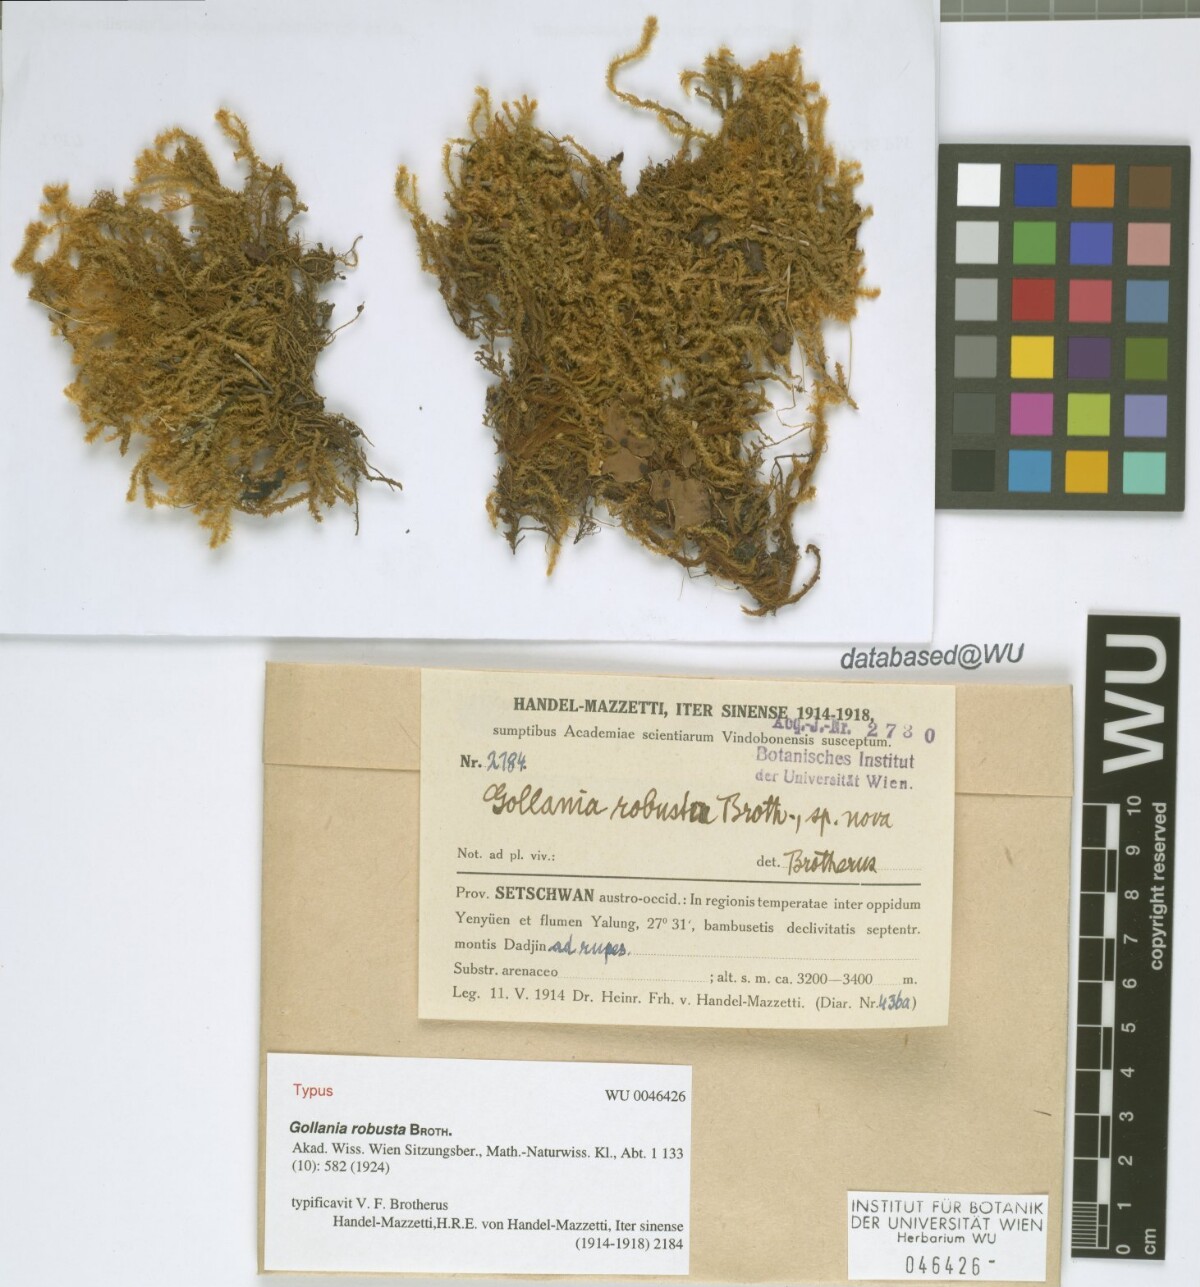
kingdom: Plantae
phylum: Bryophyta
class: Bryopsida
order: Hypnales
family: Hypnaceae
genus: Gollania
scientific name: Gollania robusta
